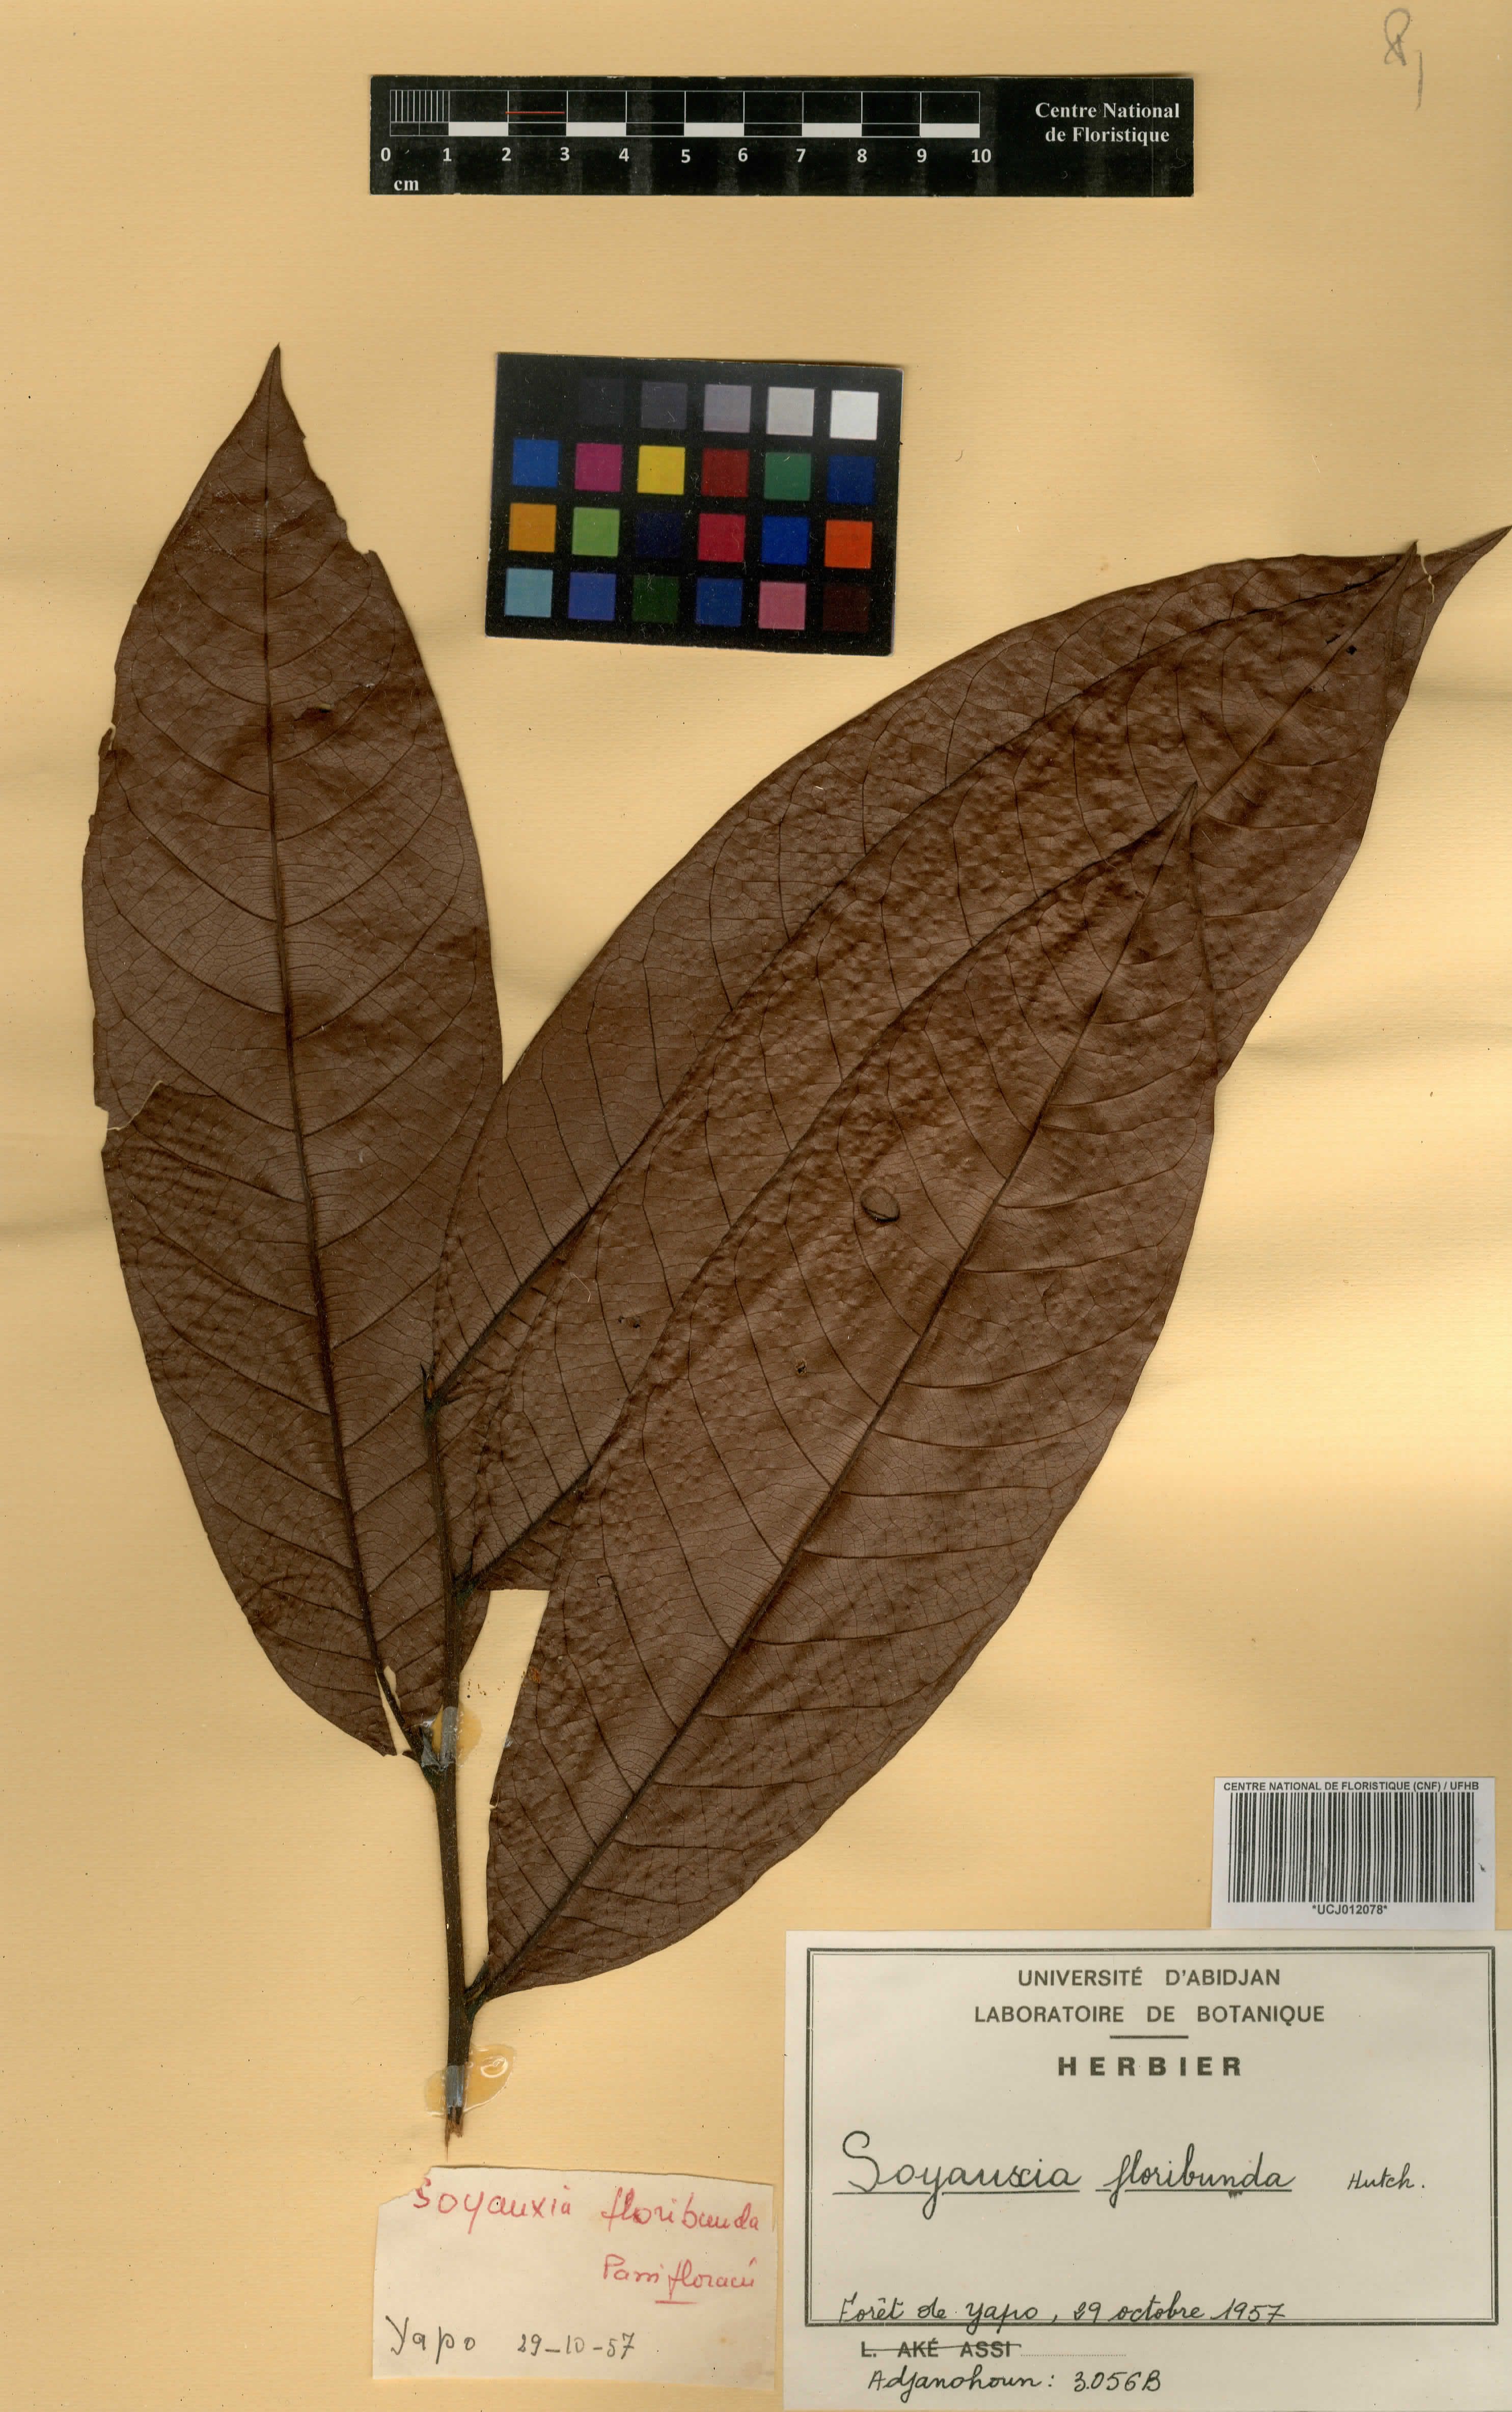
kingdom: Plantae
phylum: Tracheophyta
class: Magnoliopsida
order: Saxifragales
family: Peridiscaceae
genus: Soyauxia
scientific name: Soyauxia floribunda
